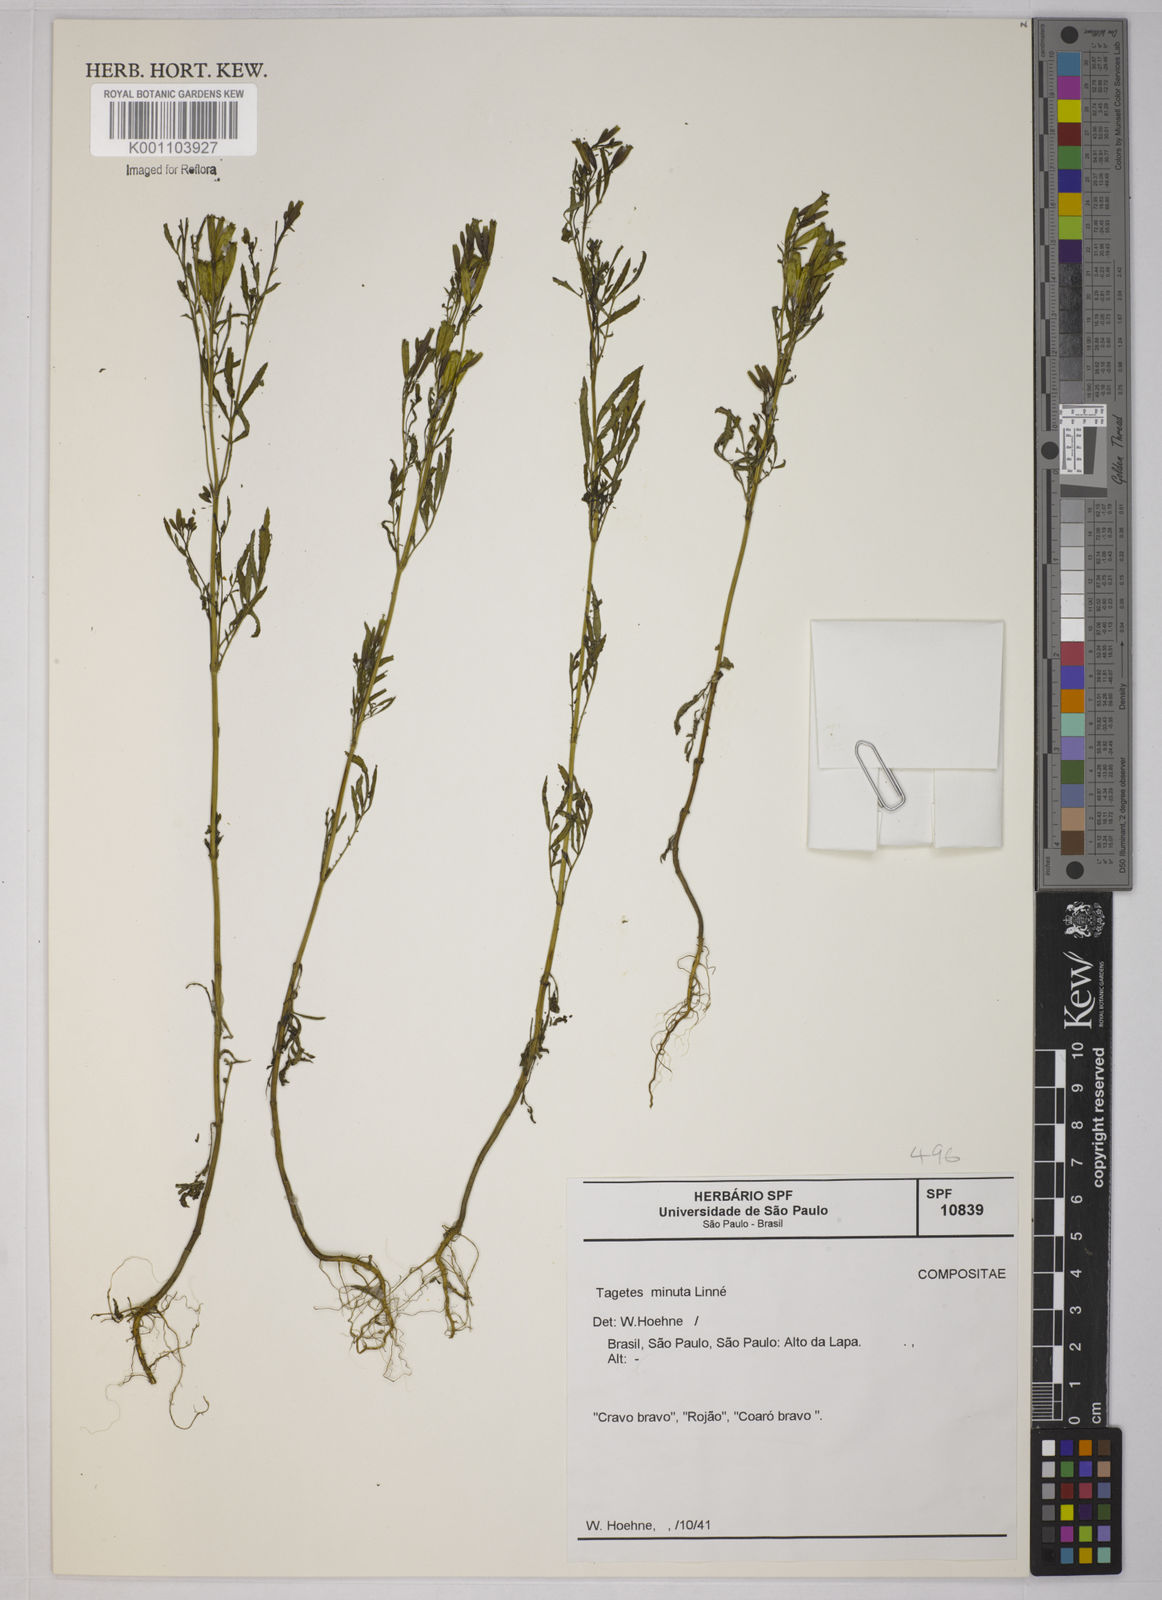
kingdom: Plantae
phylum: Tracheophyta
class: Magnoliopsida
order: Asterales
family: Asteraceae
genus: Tagetes
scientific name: Tagetes minuta
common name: Muster john henry
